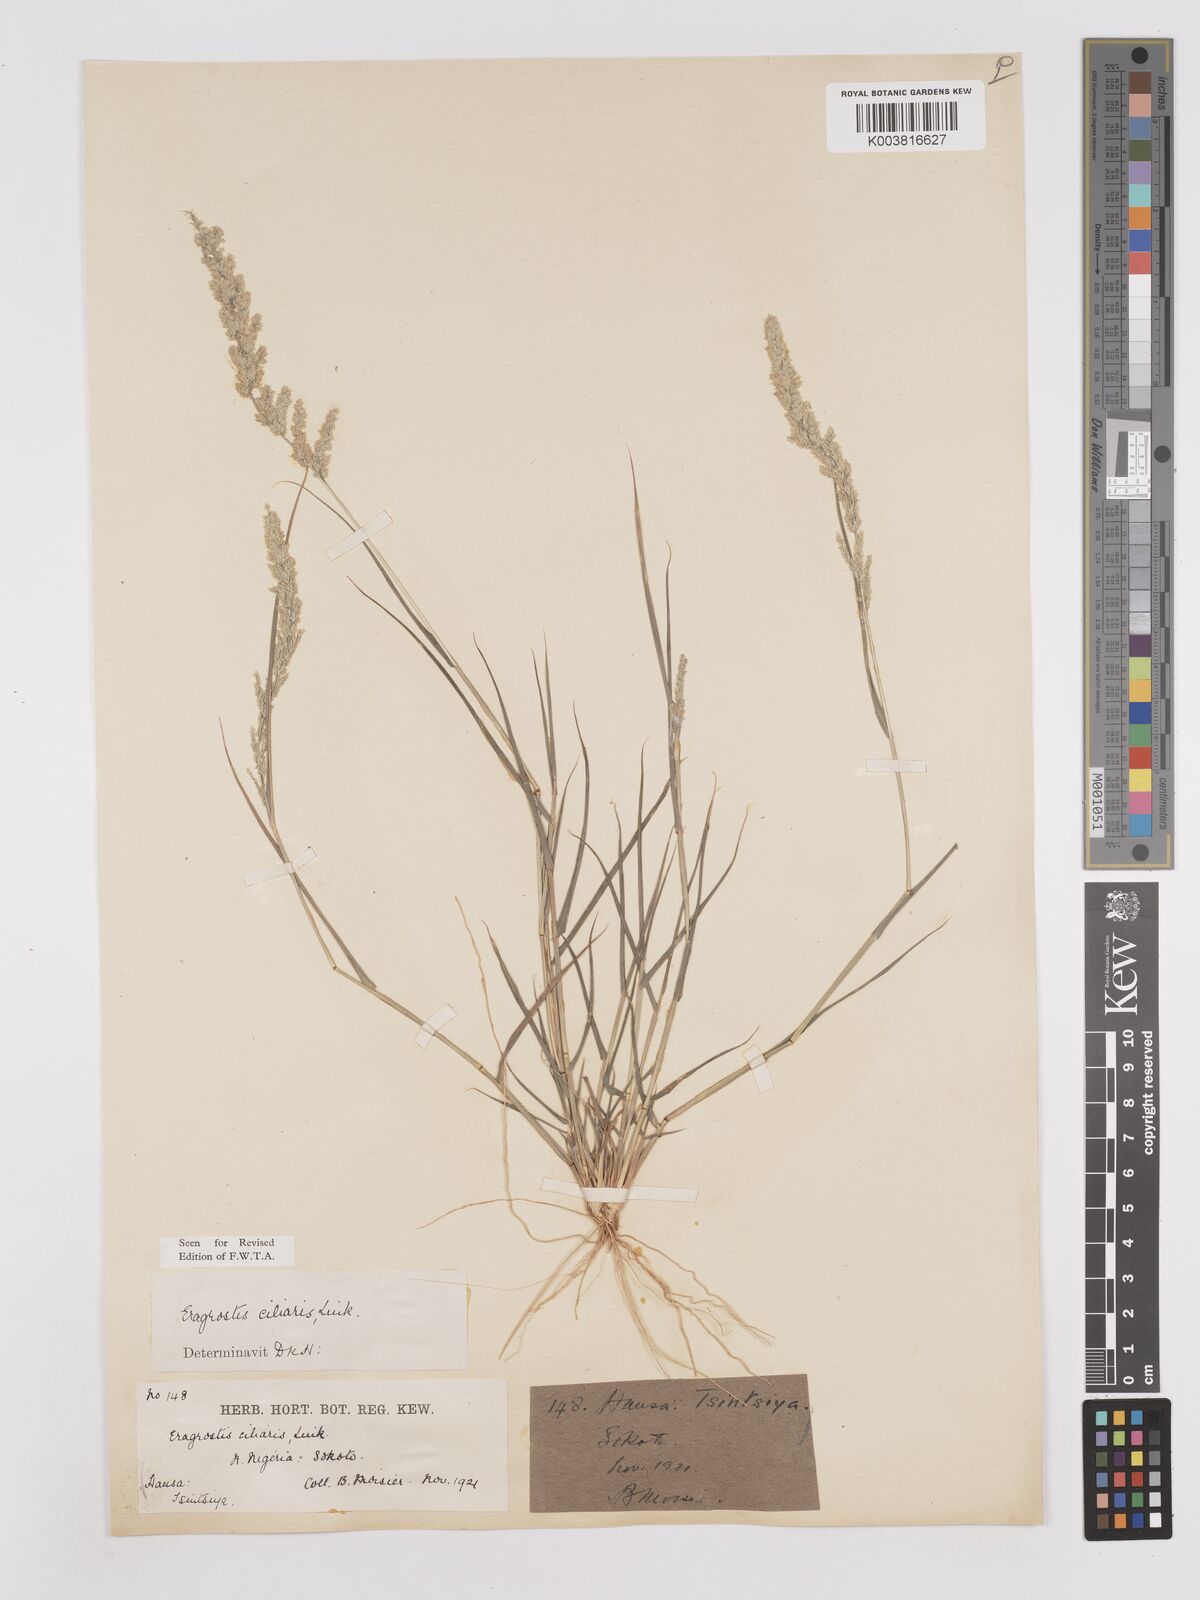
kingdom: Plantae
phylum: Tracheophyta
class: Liliopsida
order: Poales
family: Poaceae
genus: Eragrostis
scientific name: Eragrostis ciliaris
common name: Gophertail lovegrass
